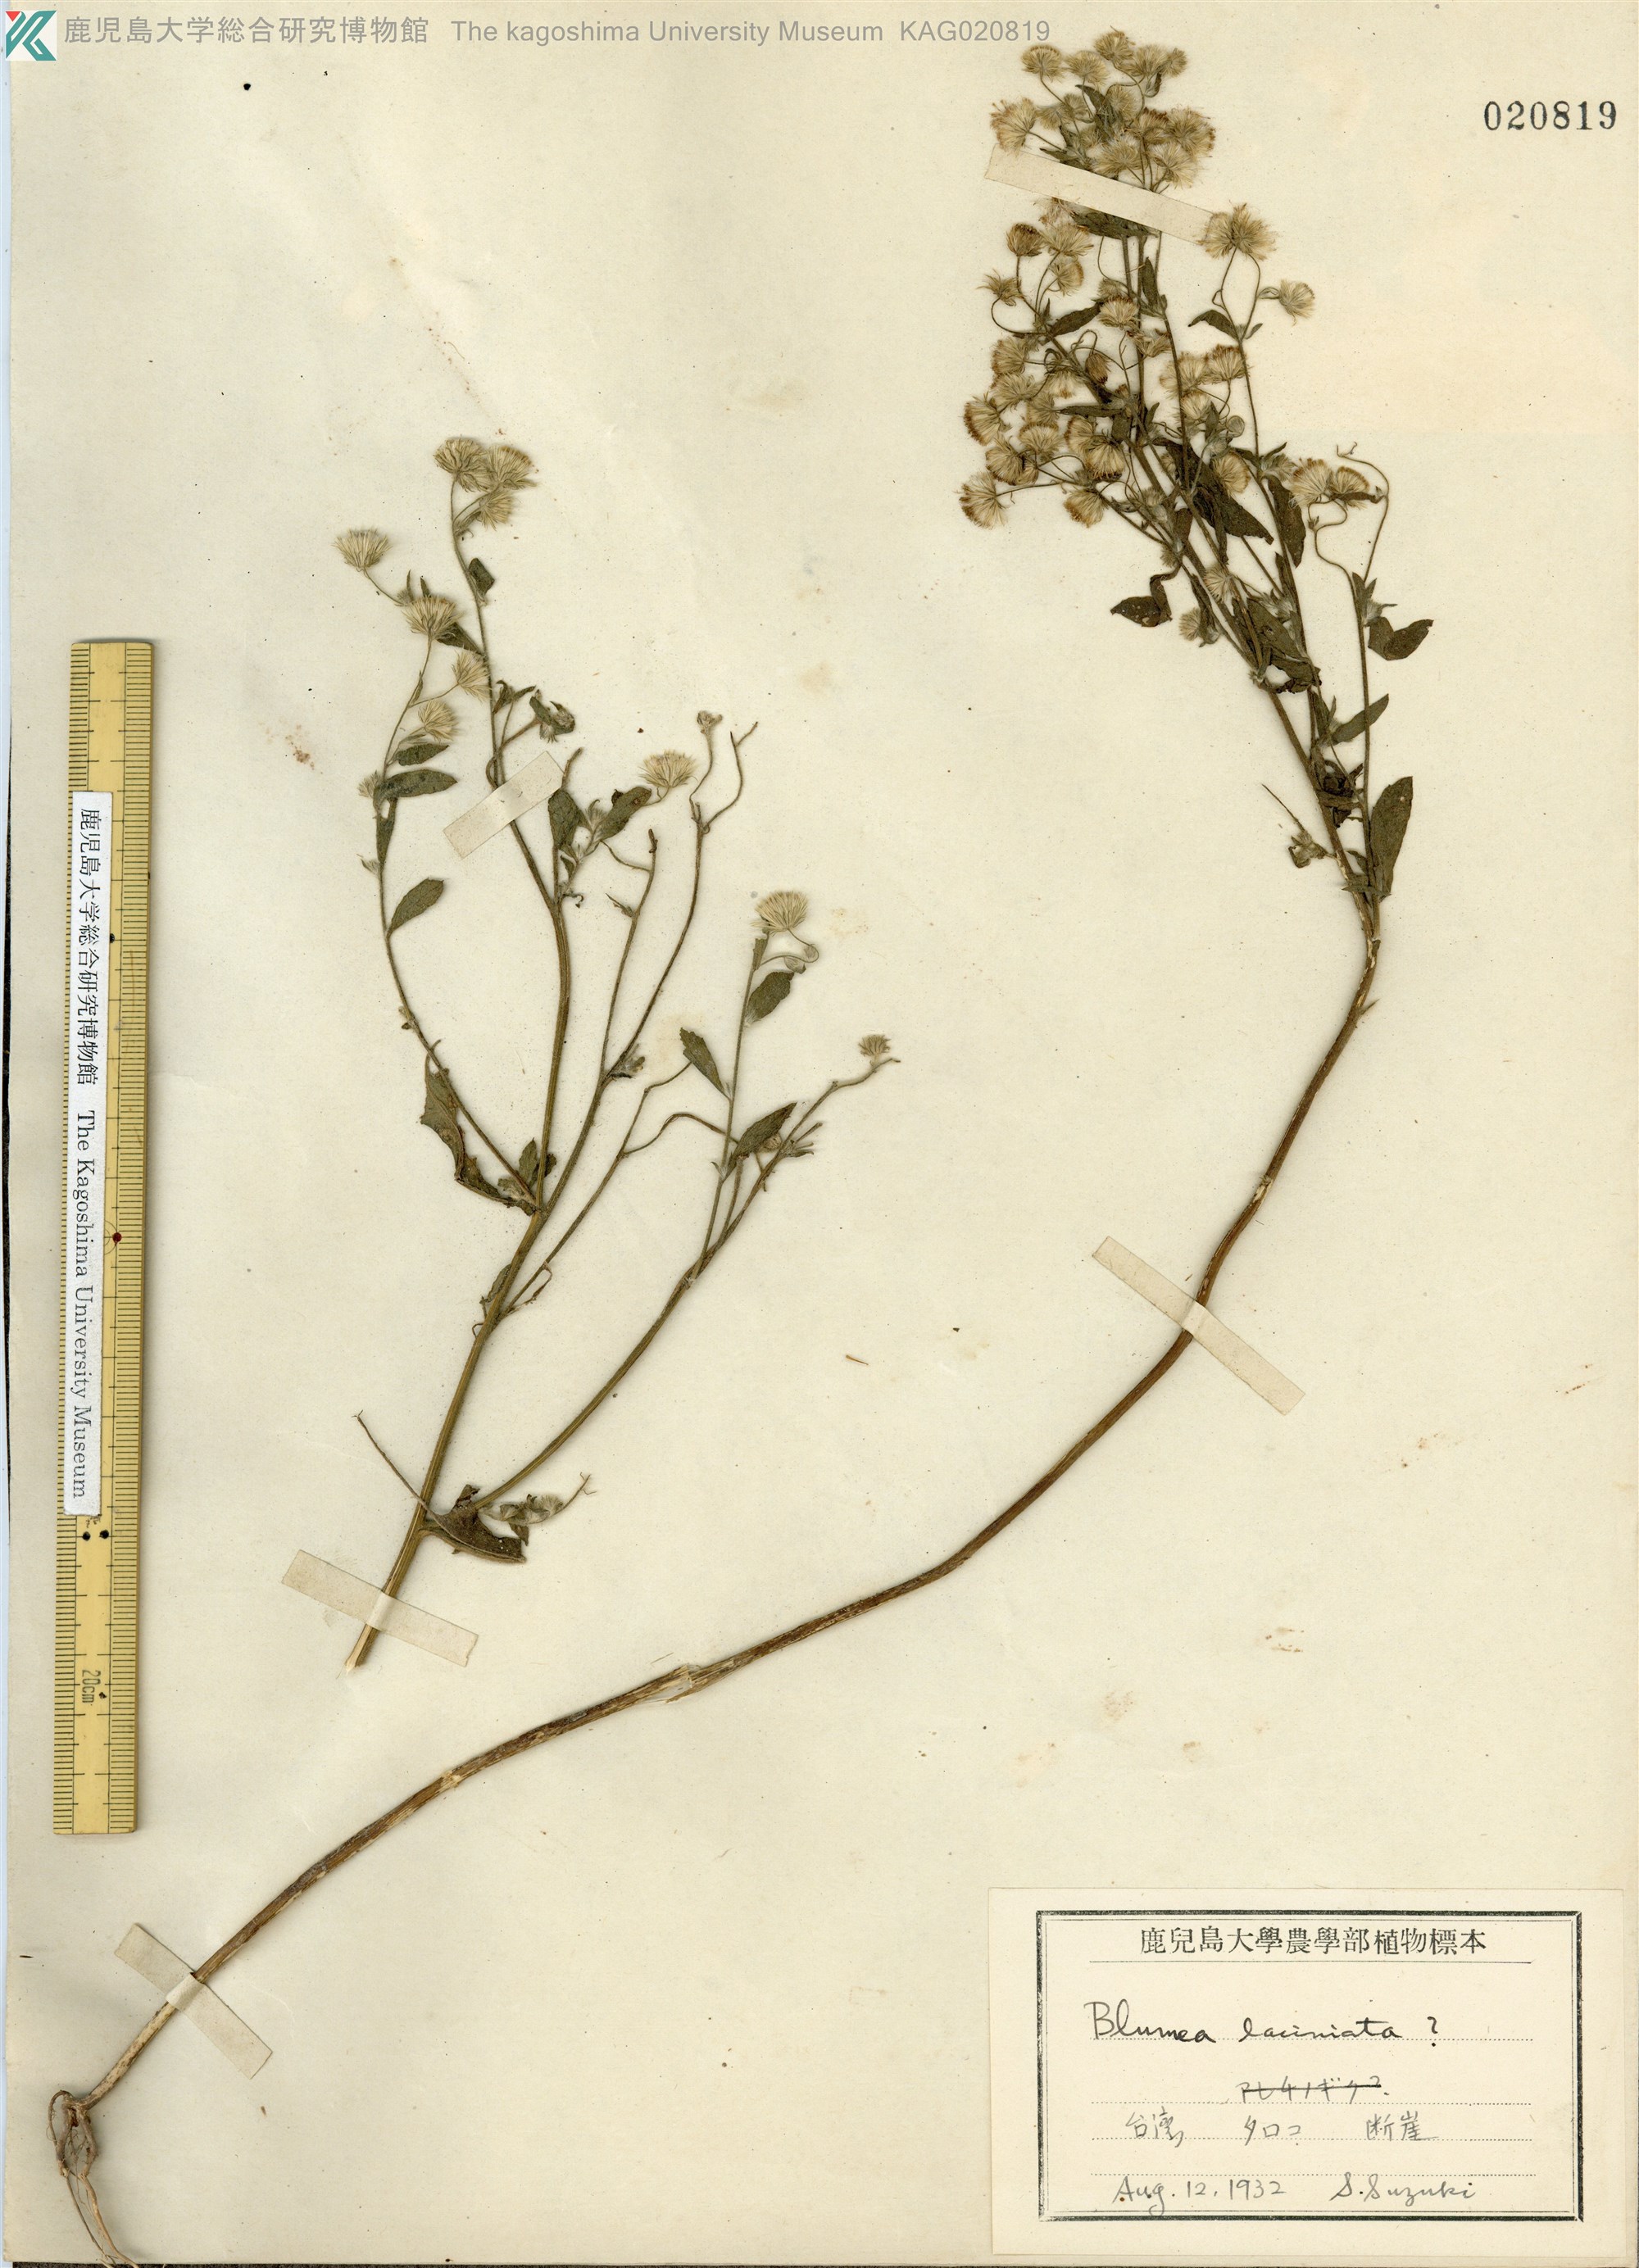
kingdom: Plantae
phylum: Tracheophyta
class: Magnoliopsida
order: Asterales
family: Asteraceae
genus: Blumea
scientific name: Blumea lacera
